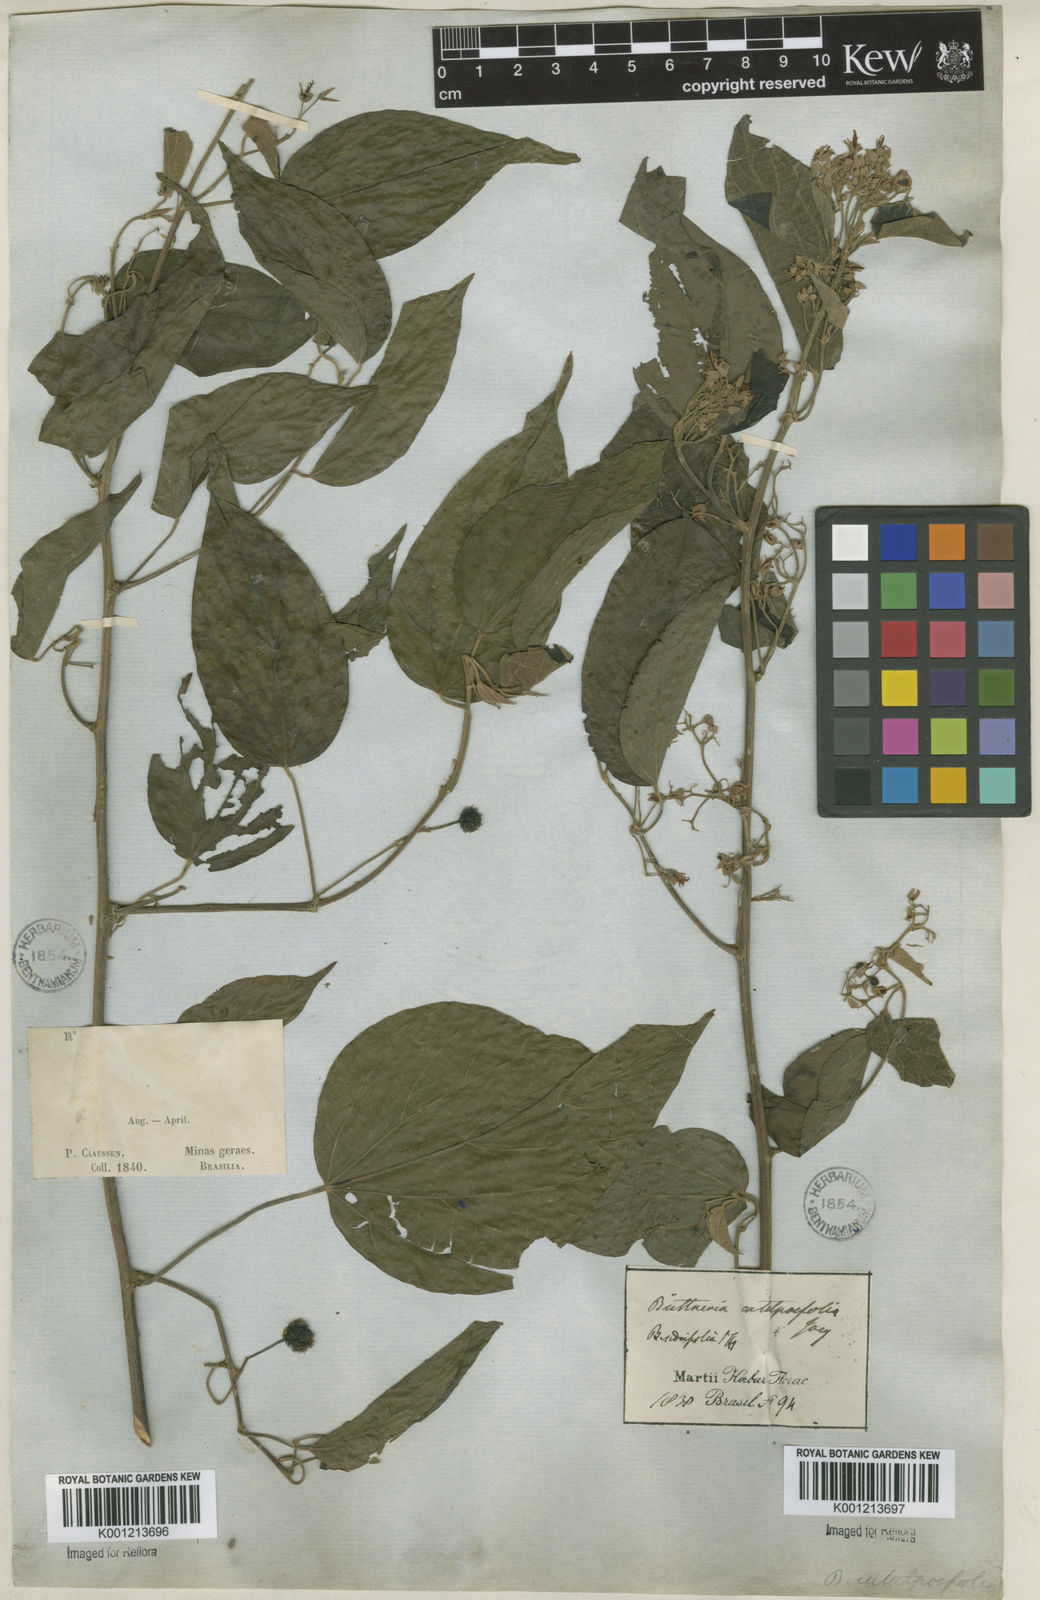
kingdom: Plantae
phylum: Tracheophyta
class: Magnoliopsida
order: Malvales
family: Malvaceae
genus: Byttneria
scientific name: Byttneria catalpifolia
